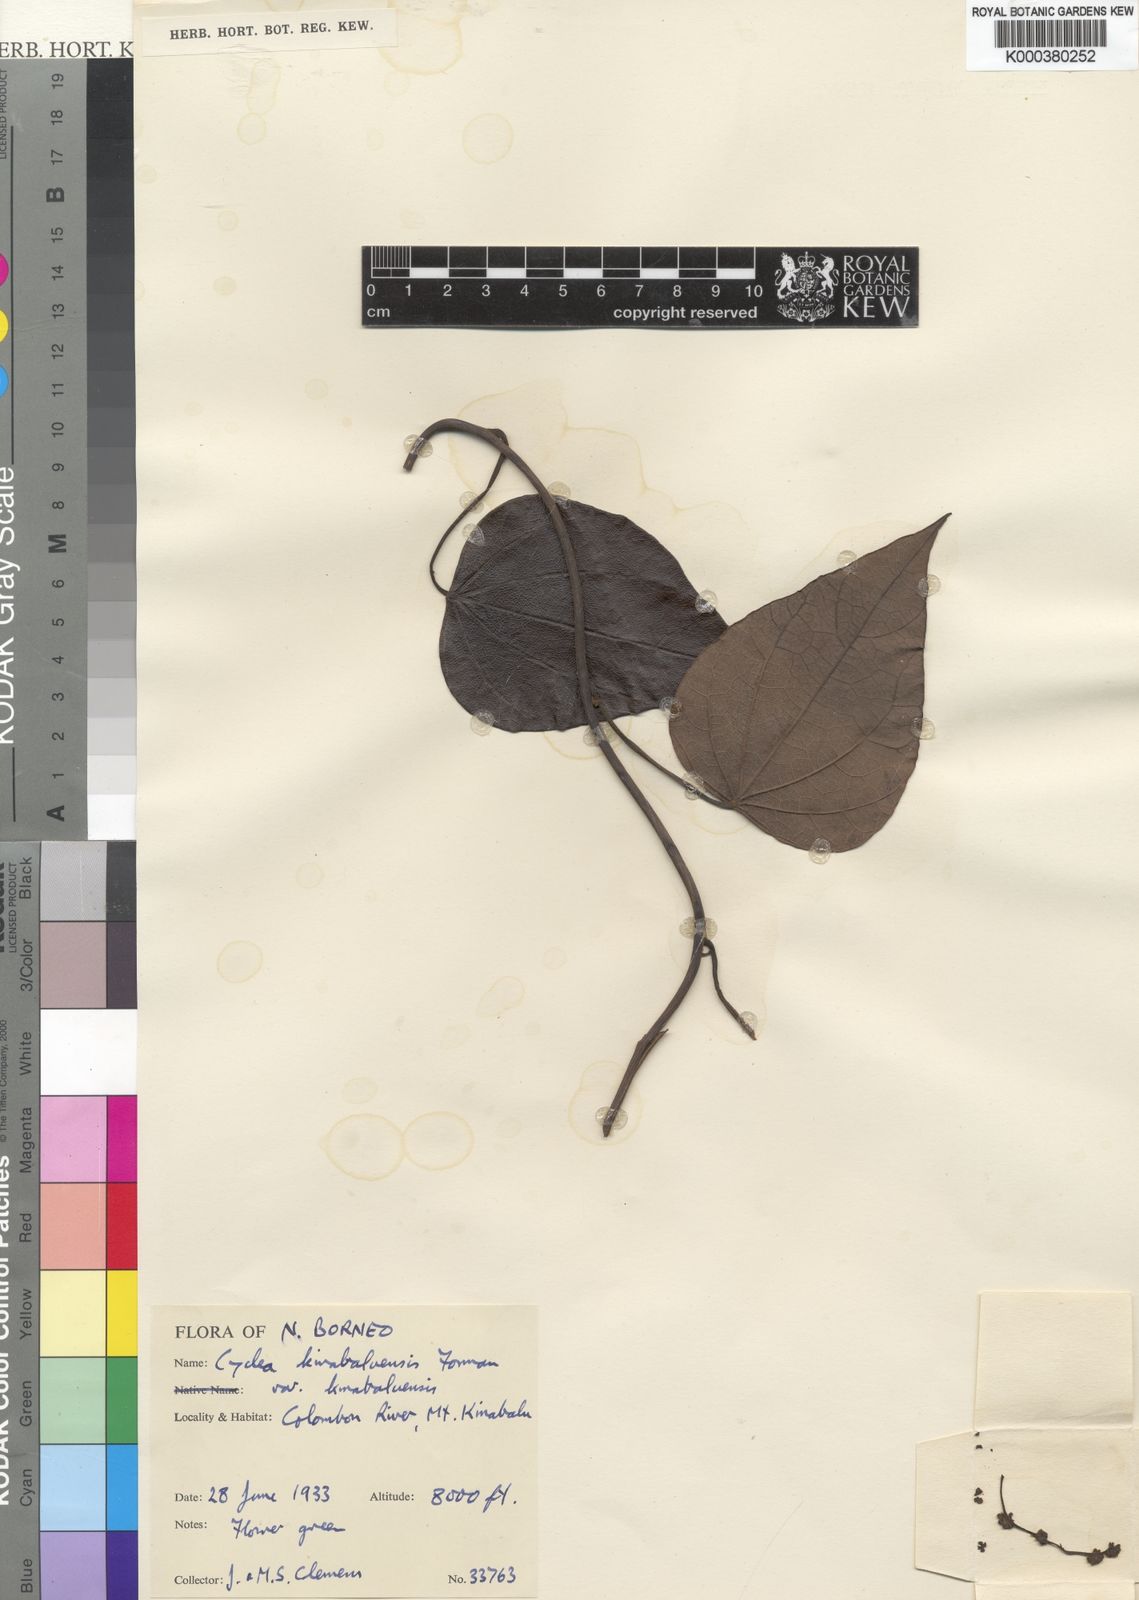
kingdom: Plantae
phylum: Tracheophyta
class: Magnoliopsida
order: Ranunculales
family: Menispermaceae
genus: Cyclea
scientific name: Cyclea kinabaluensis
